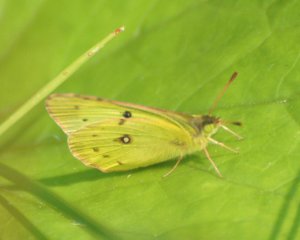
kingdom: Animalia
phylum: Arthropoda
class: Insecta
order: Lepidoptera
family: Pieridae
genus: Colias
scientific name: Colias philodice
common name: Clouded Sulphur
